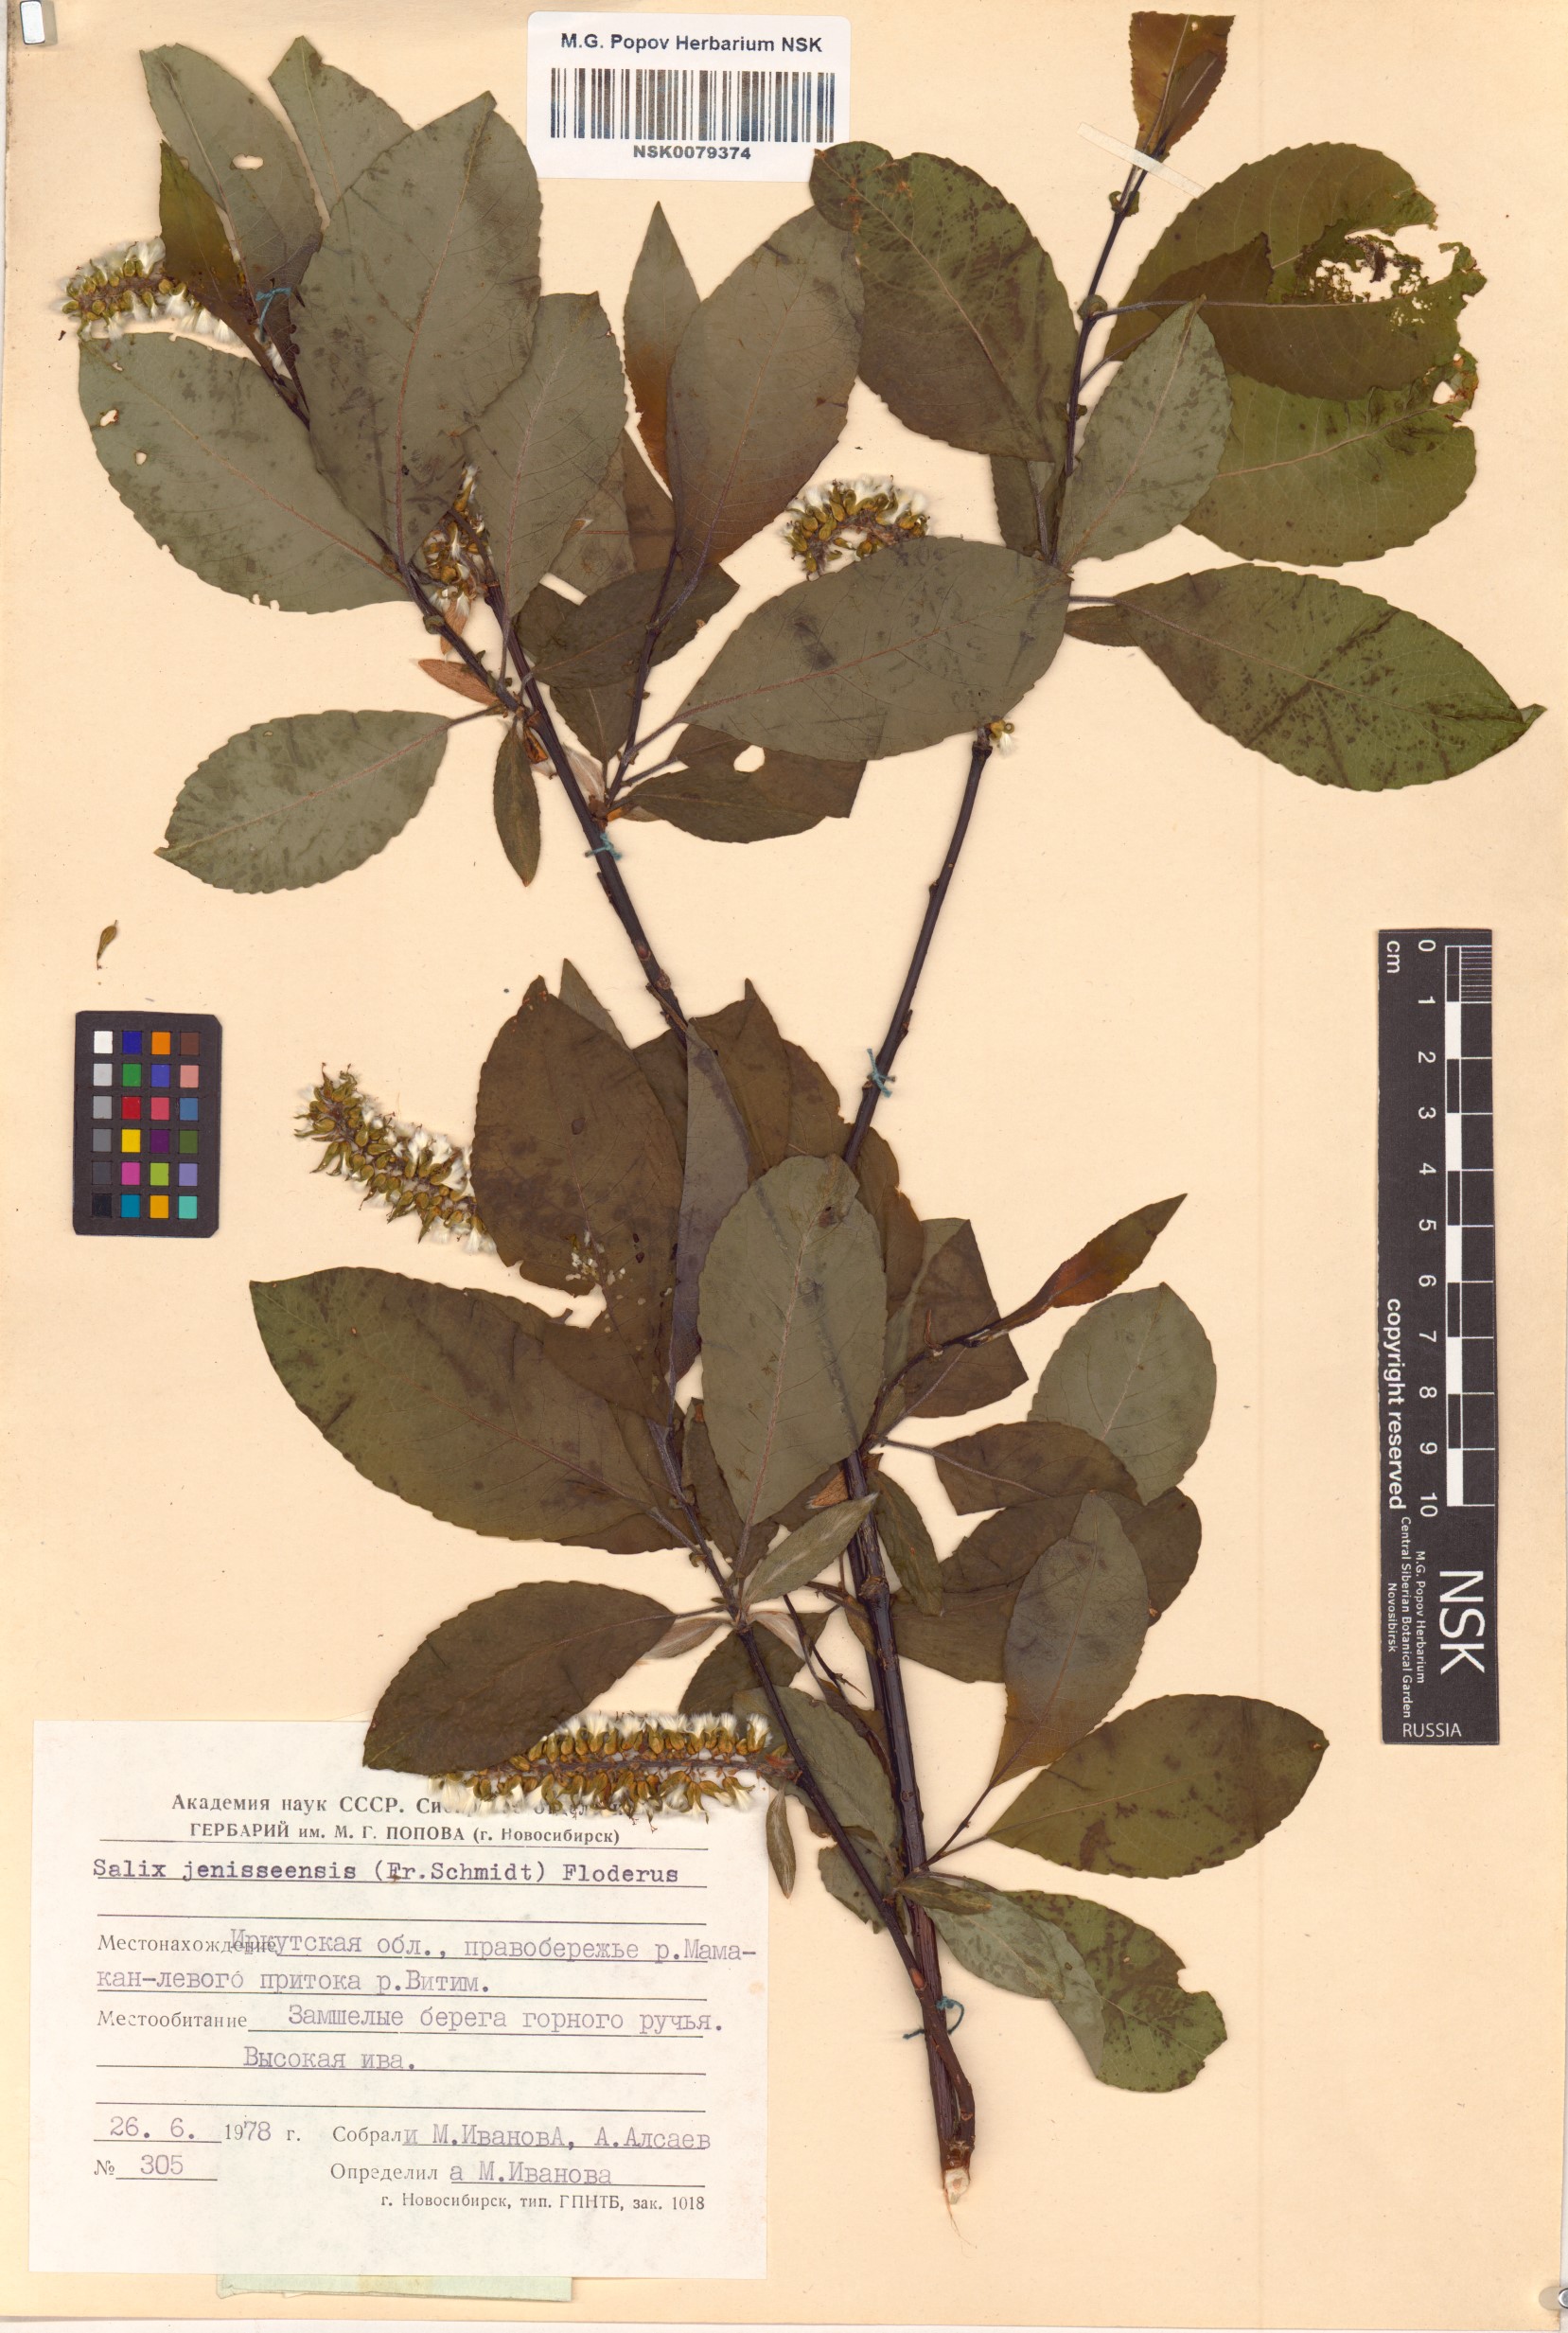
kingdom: Plantae
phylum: Tracheophyta
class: Magnoliopsida
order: Malpighiales
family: Salicaceae
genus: Salix
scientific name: Salix jenisseensis
